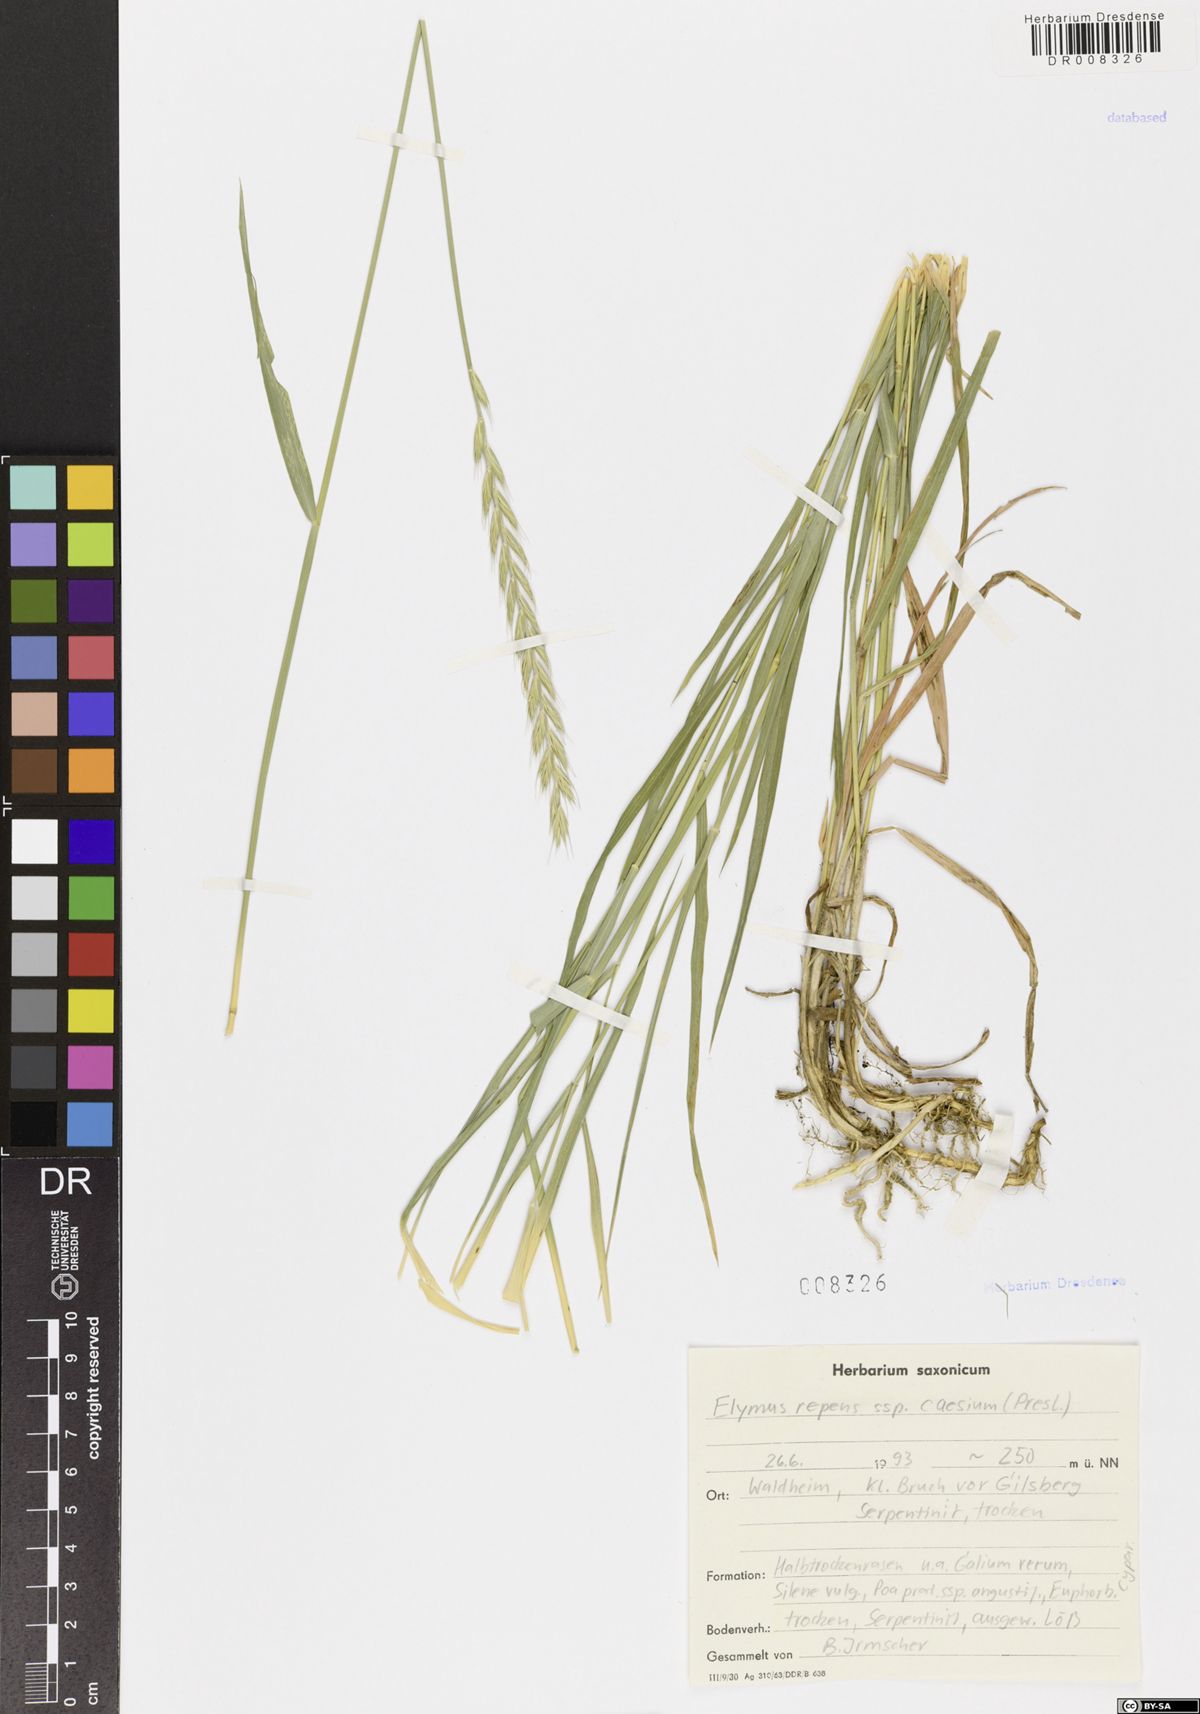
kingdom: Plantae
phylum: Tracheophyta
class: Liliopsida
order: Poales
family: Poaceae
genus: Elymus
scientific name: Elymus repens
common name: Quackgrass
